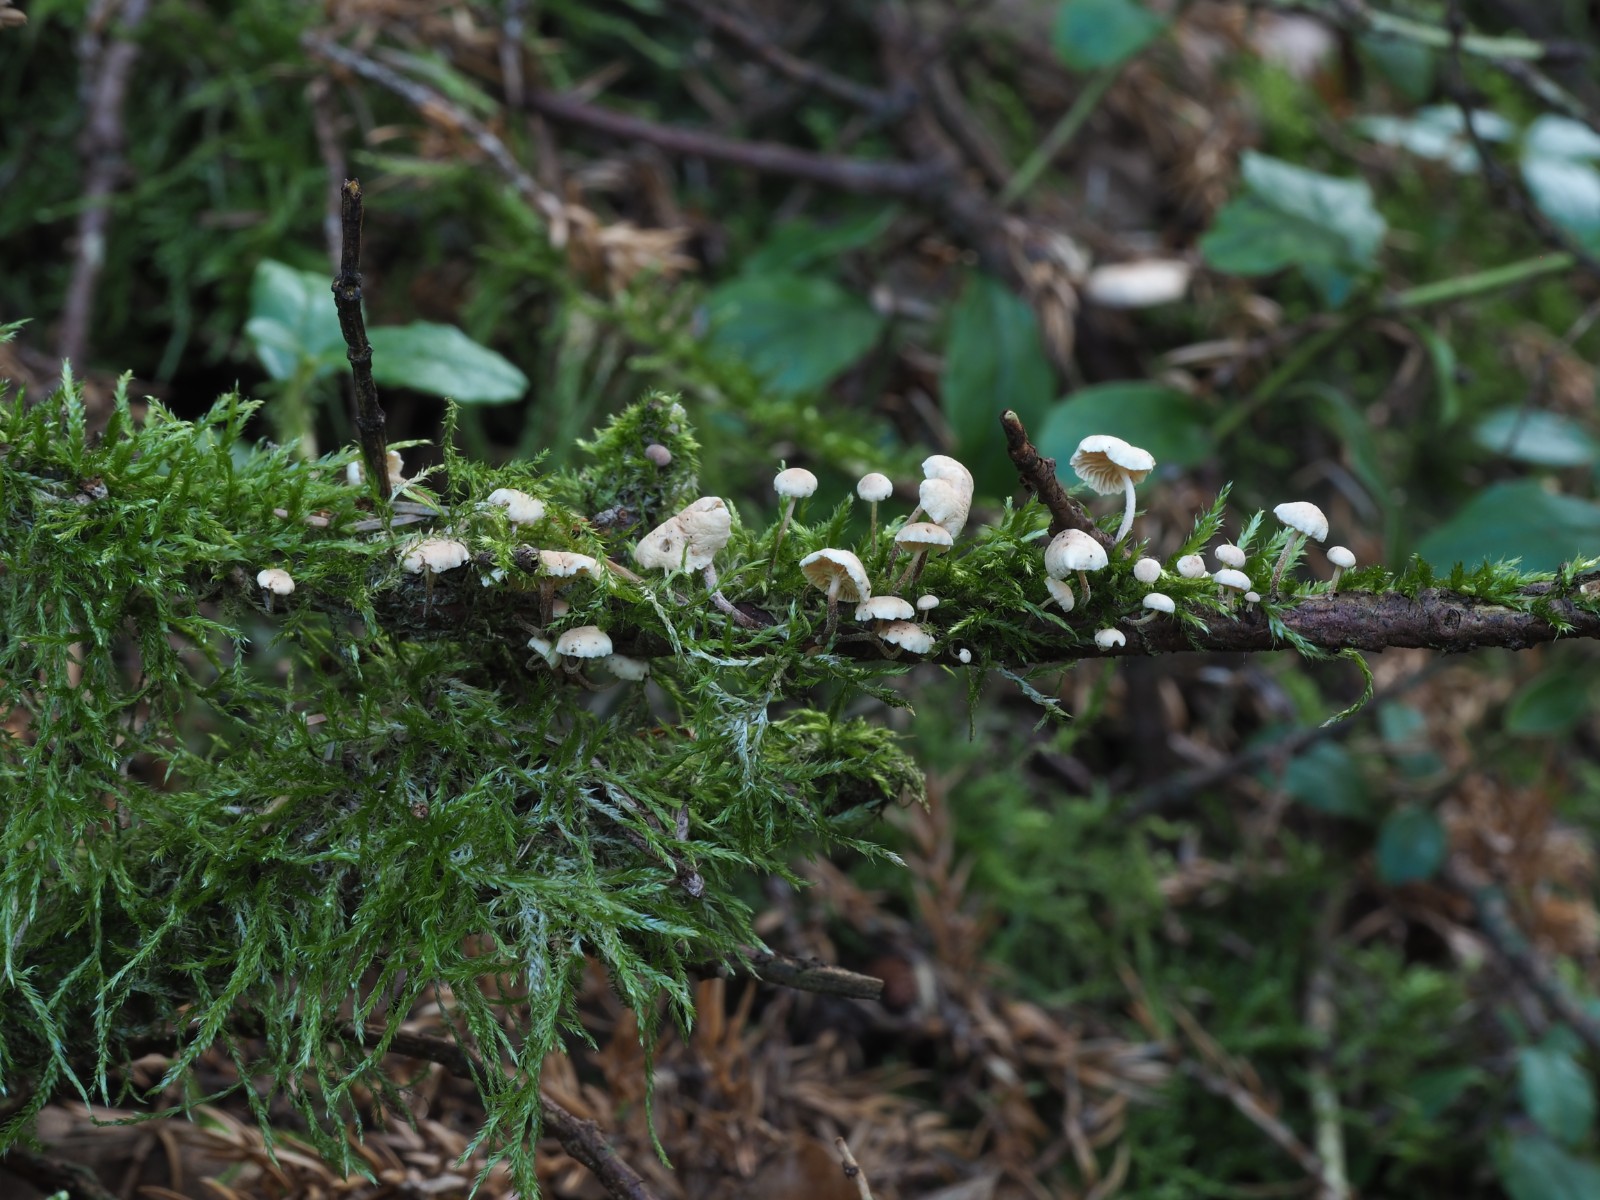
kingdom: Fungi
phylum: Basidiomycota
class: Agaricomycetes
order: Agaricales
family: Omphalotaceae
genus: Collybiopsis
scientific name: Collybiopsis ramealis
